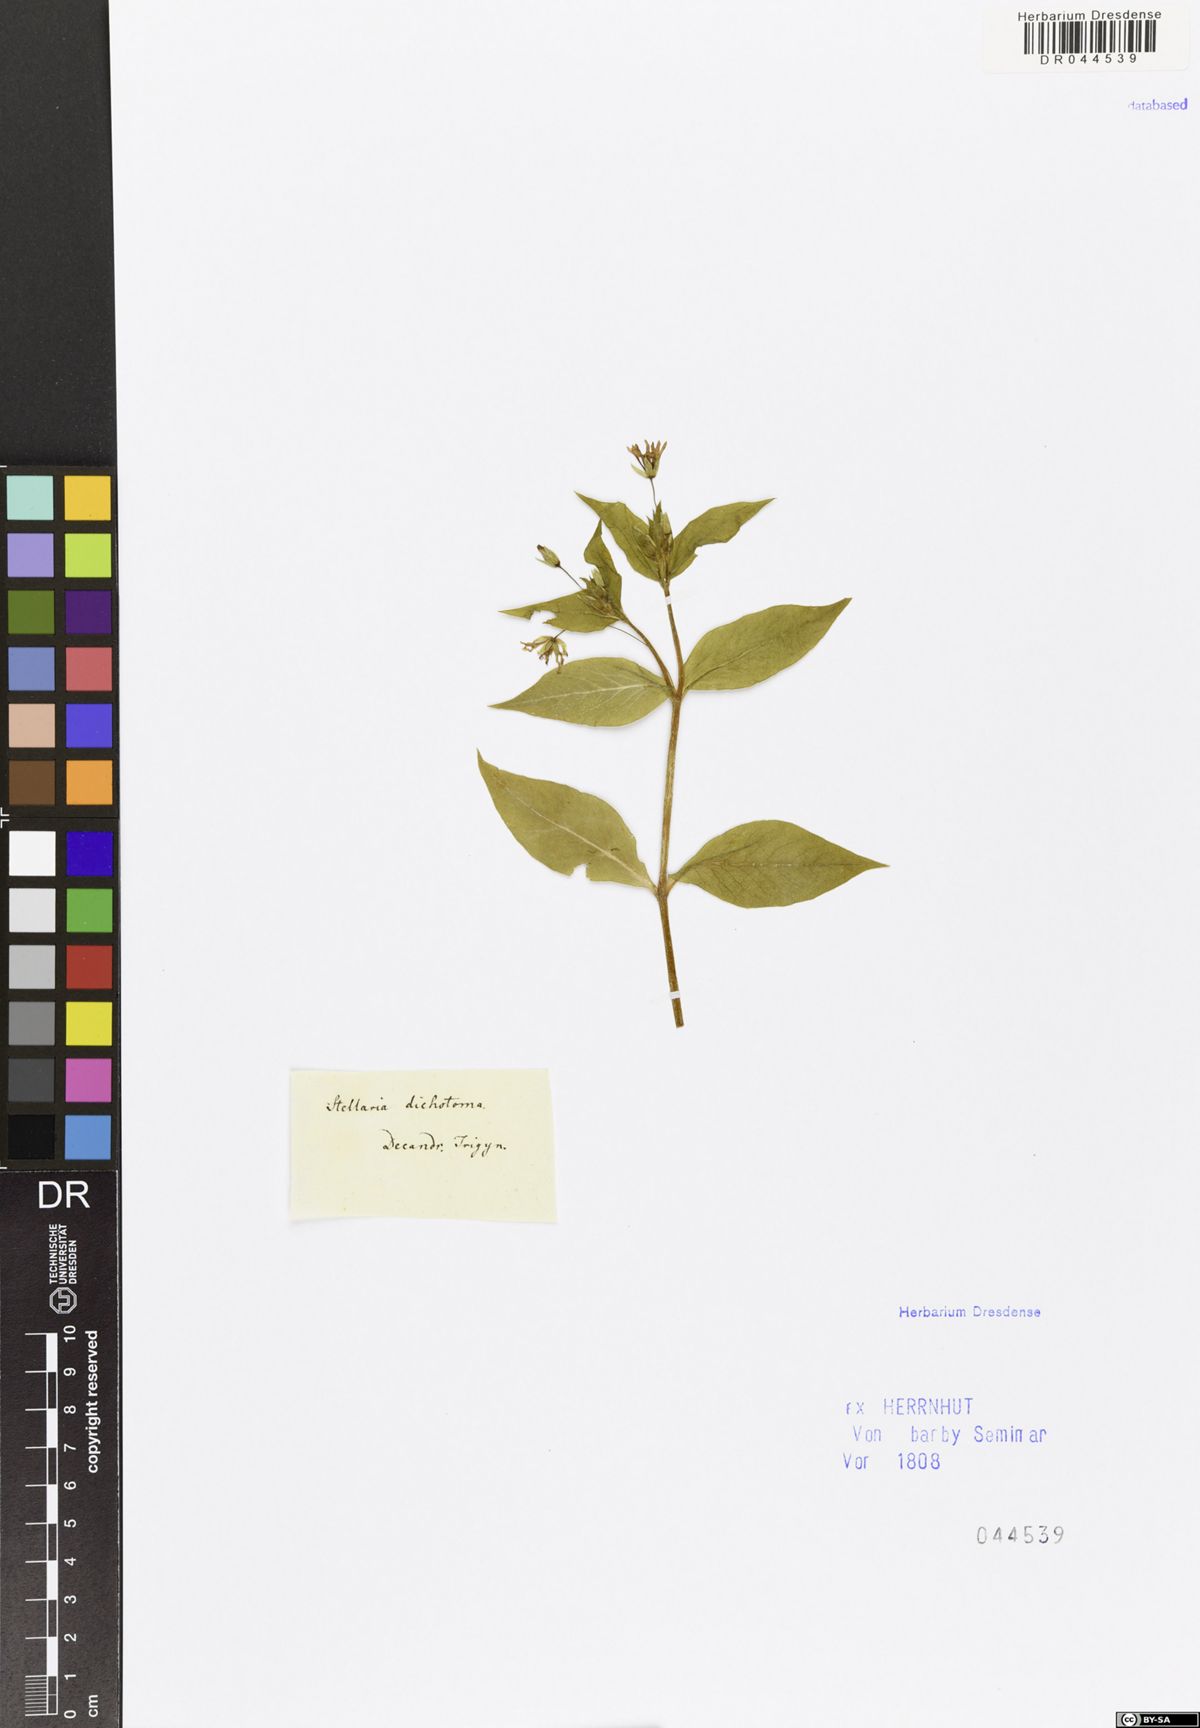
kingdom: Plantae
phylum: Tracheophyta
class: Magnoliopsida
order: Caryophyllales
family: Caryophyllaceae
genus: Stellaria
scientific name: Stellaria nemorum
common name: Wood stitchwort
